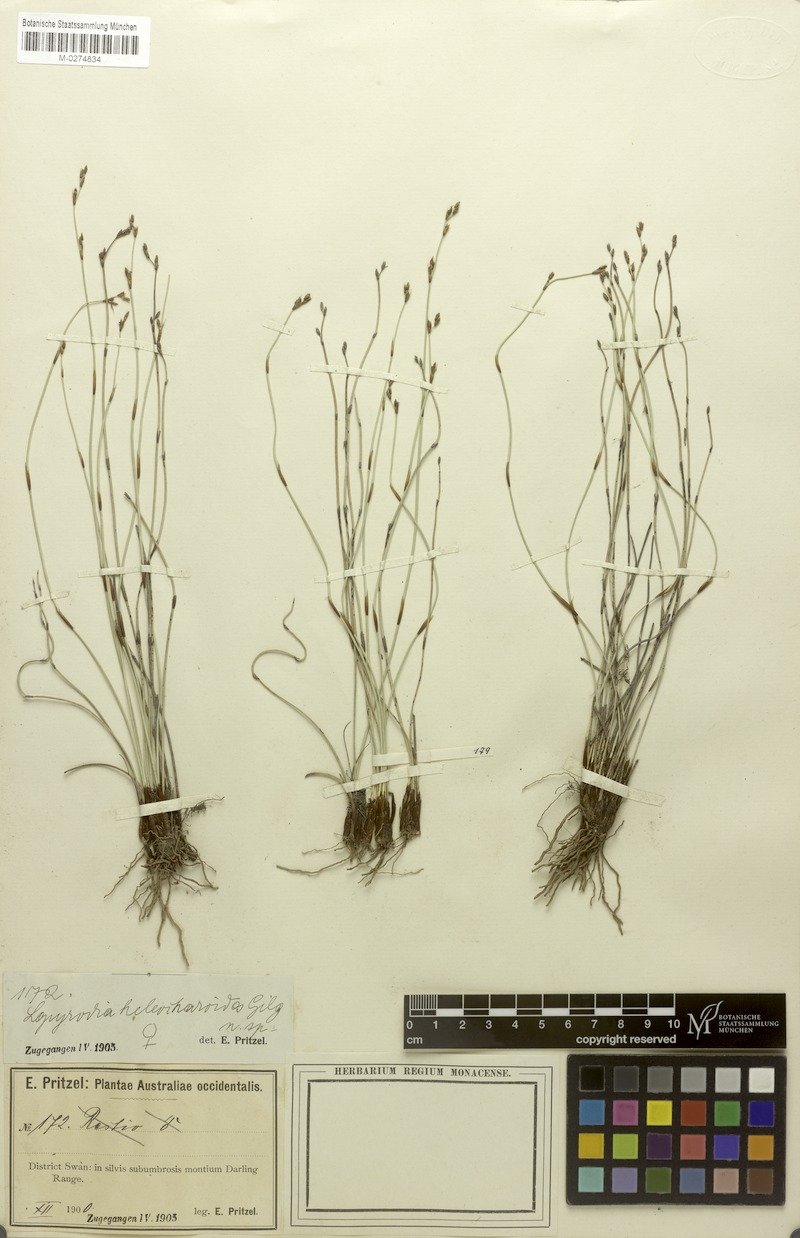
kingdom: Plantae
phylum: Tracheophyta
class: Liliopsida
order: Poales
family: Restionaceae
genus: Lepyrodia
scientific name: Lepyrodia heleocharoides
